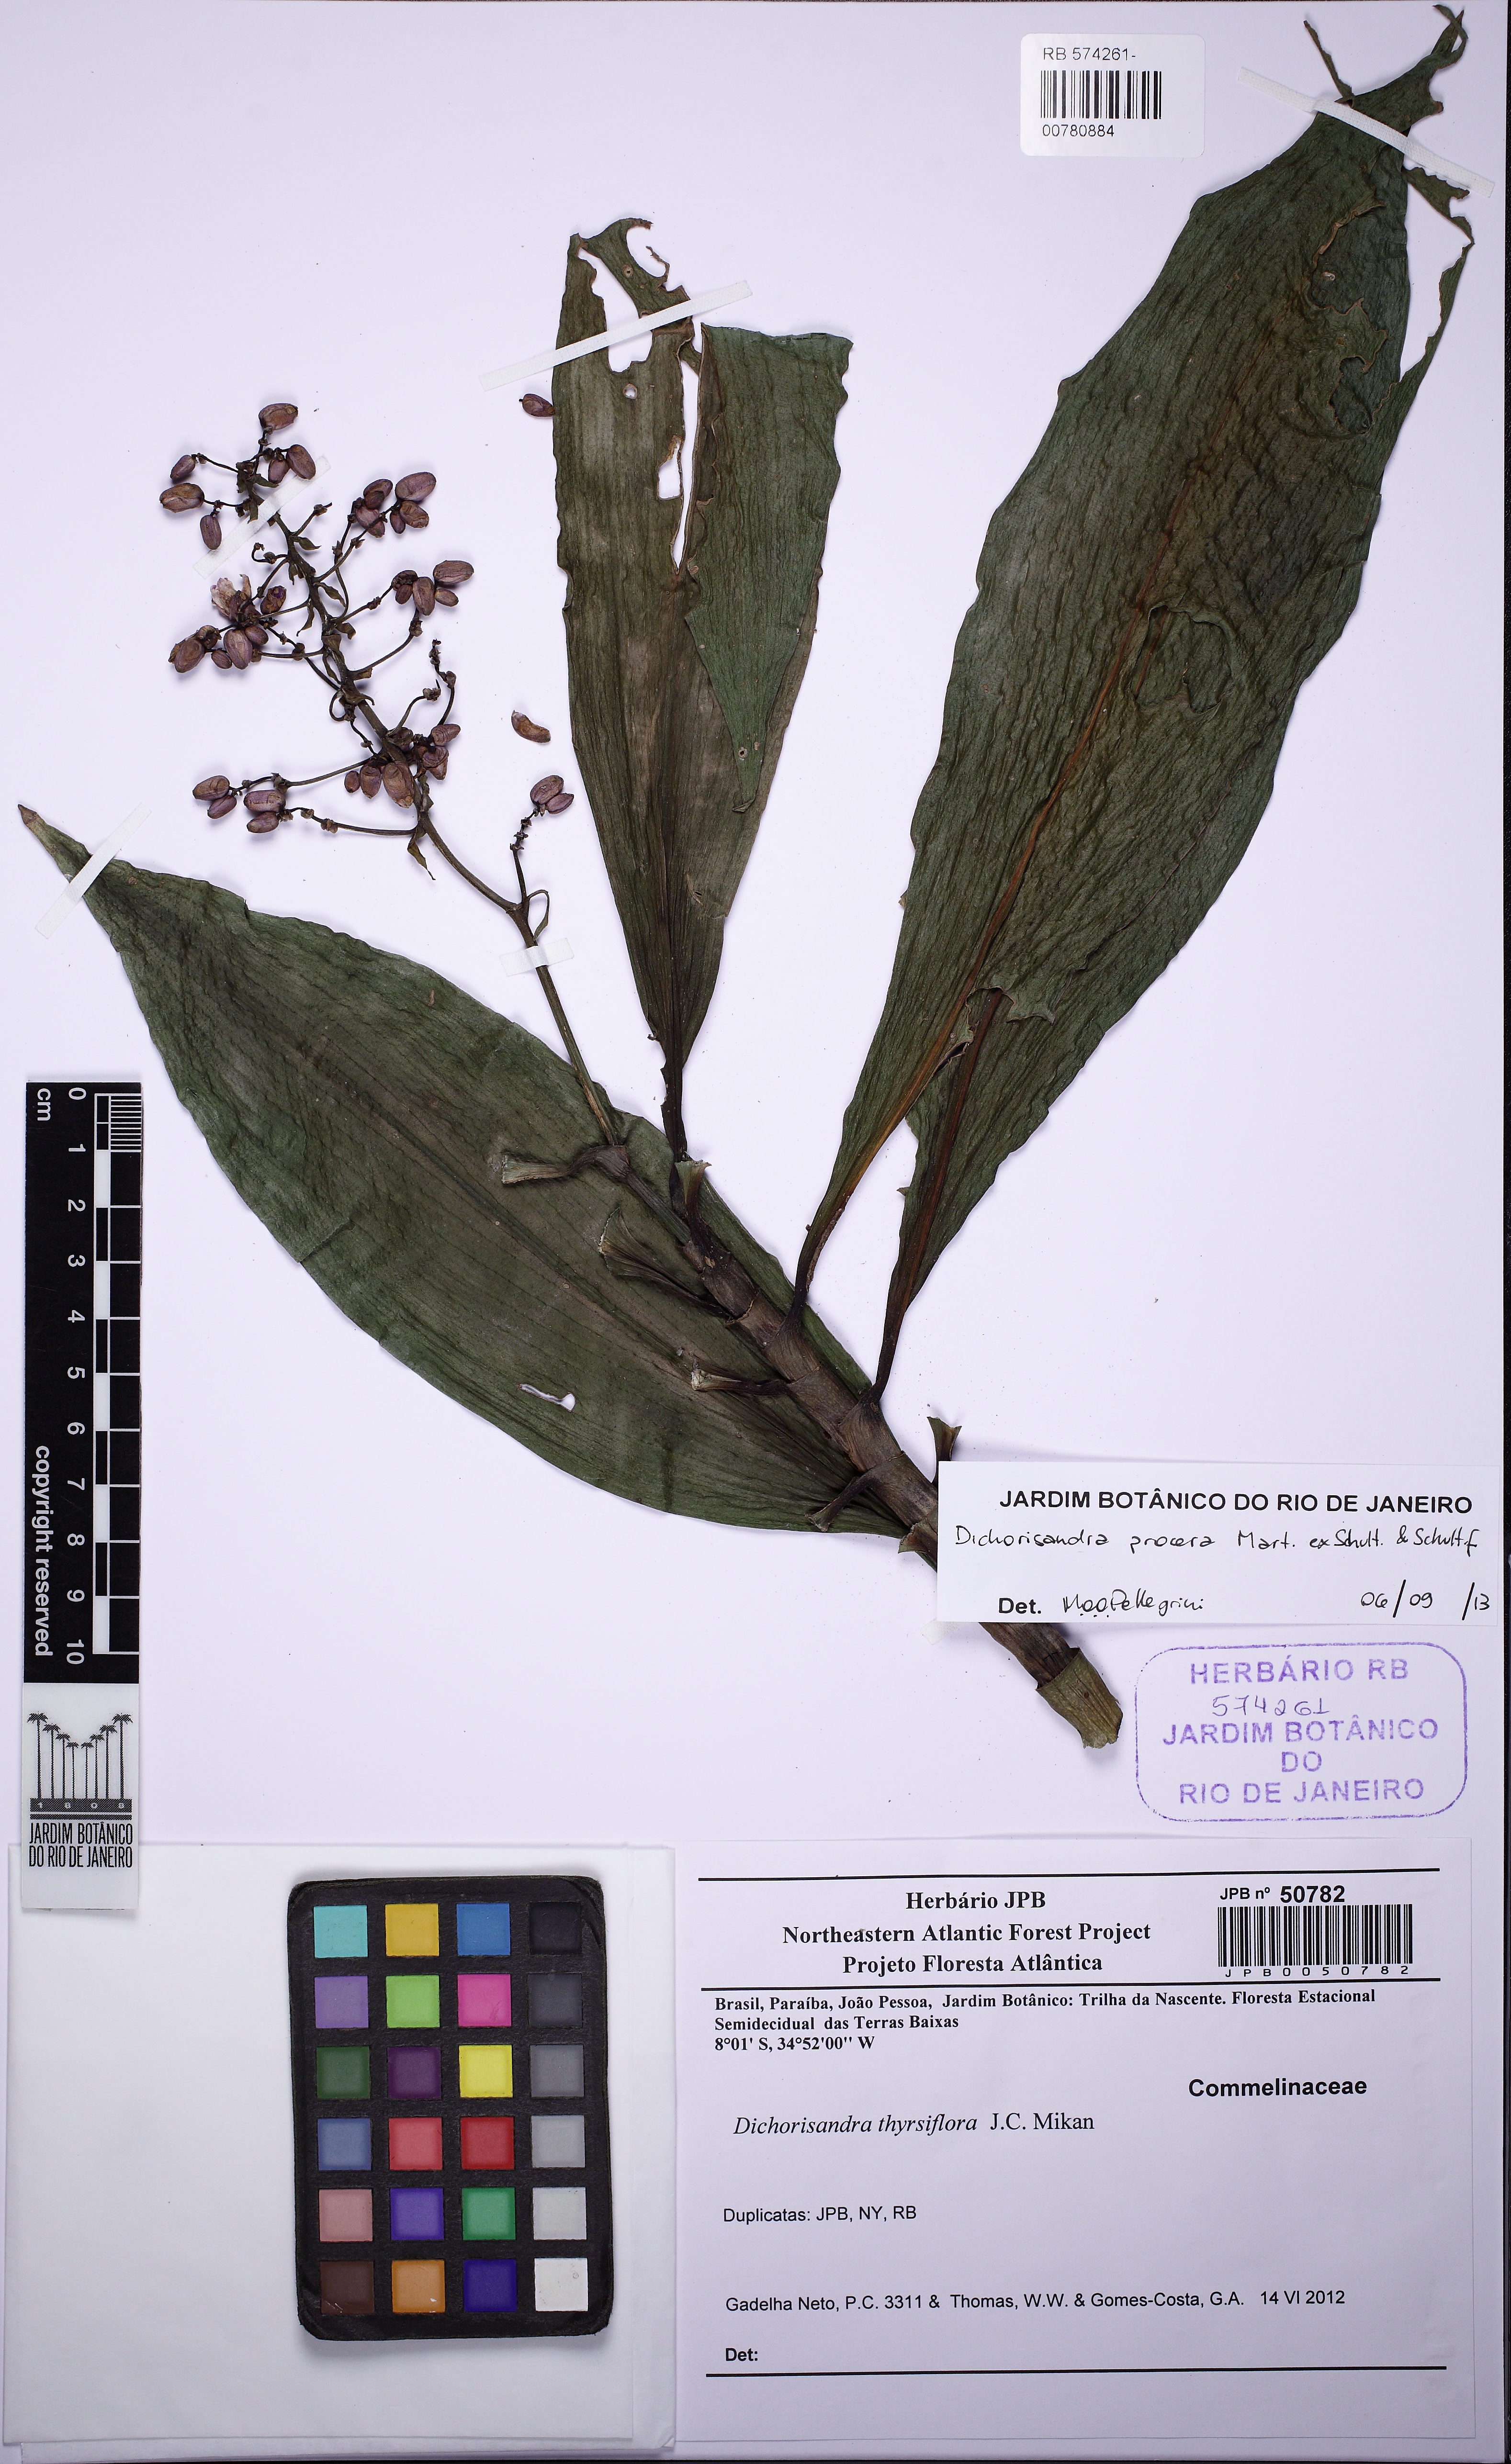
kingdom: Plantae
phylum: Tracheophyta
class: Liliopsida
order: Commelinales
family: Commelinaceae
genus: Dichorisandra
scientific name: Dichorisandra procera
